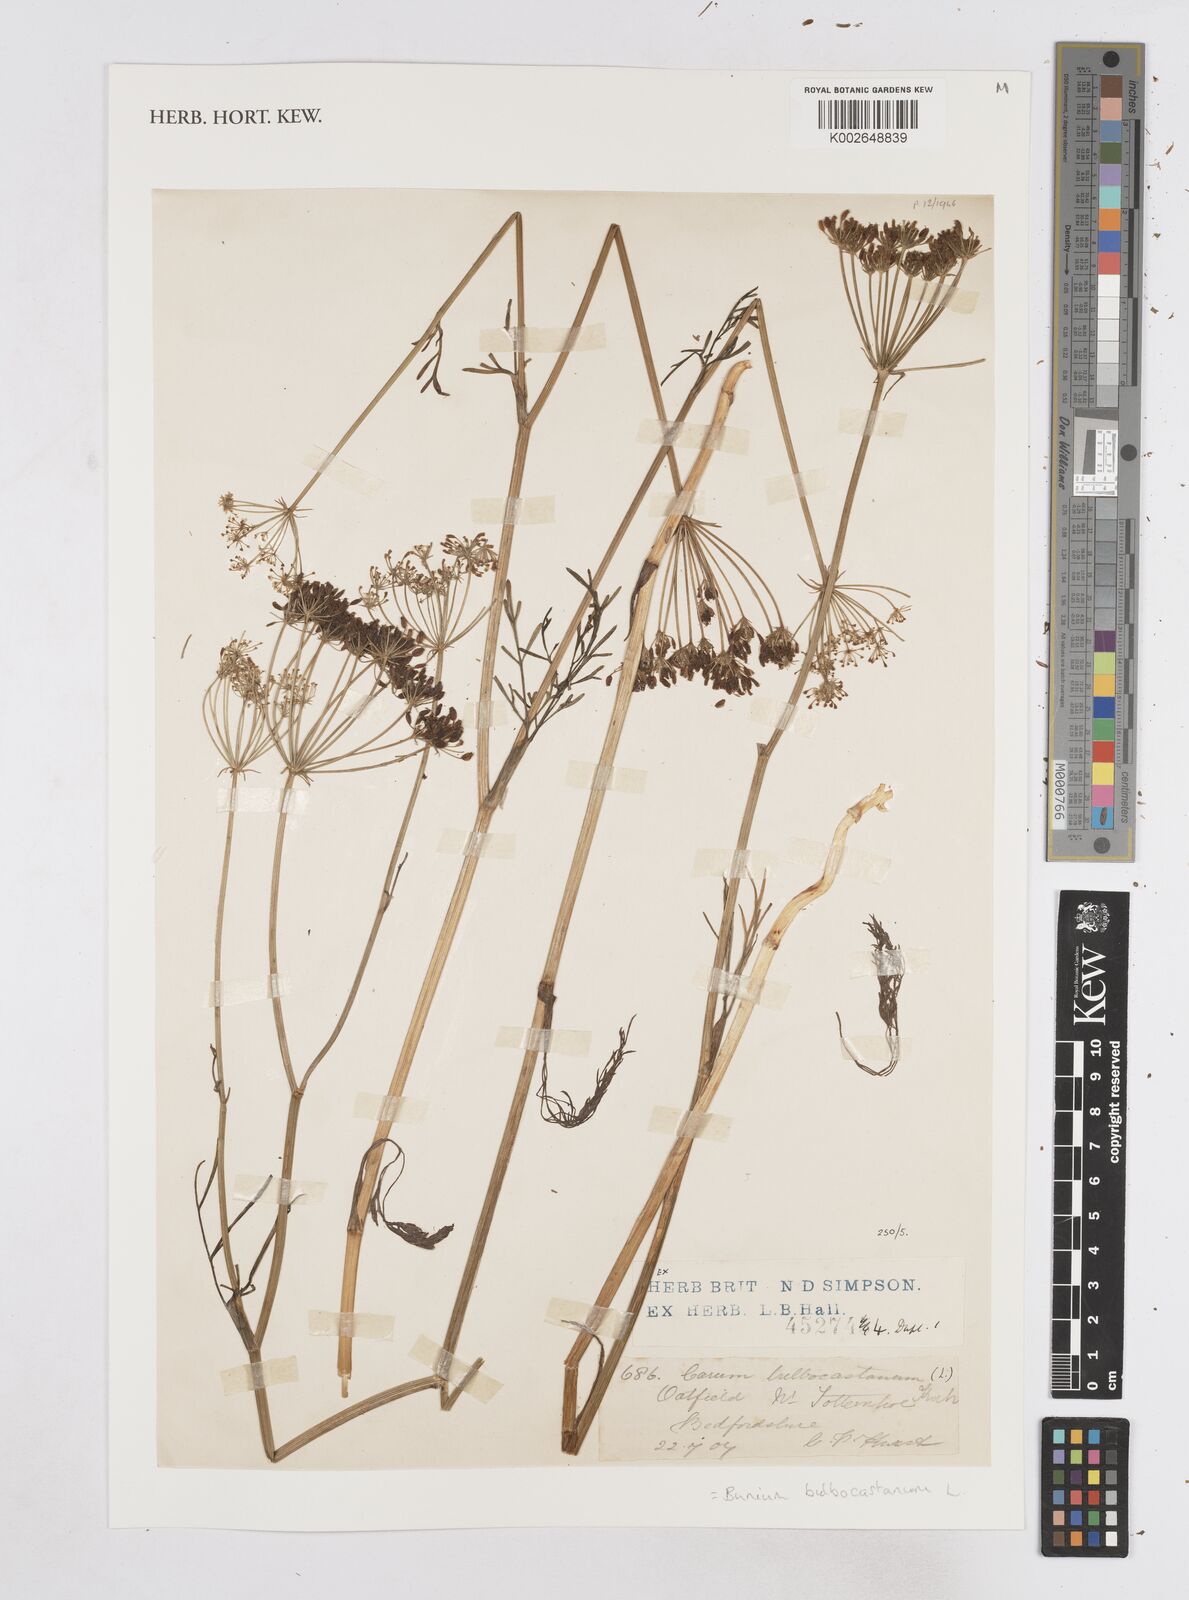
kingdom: Plantae
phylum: Tracheophyta
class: Magnoliopsida
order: Apiales
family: Apiaceae
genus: Bunium
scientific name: Bunium bulbocastanum
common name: Great pignut
